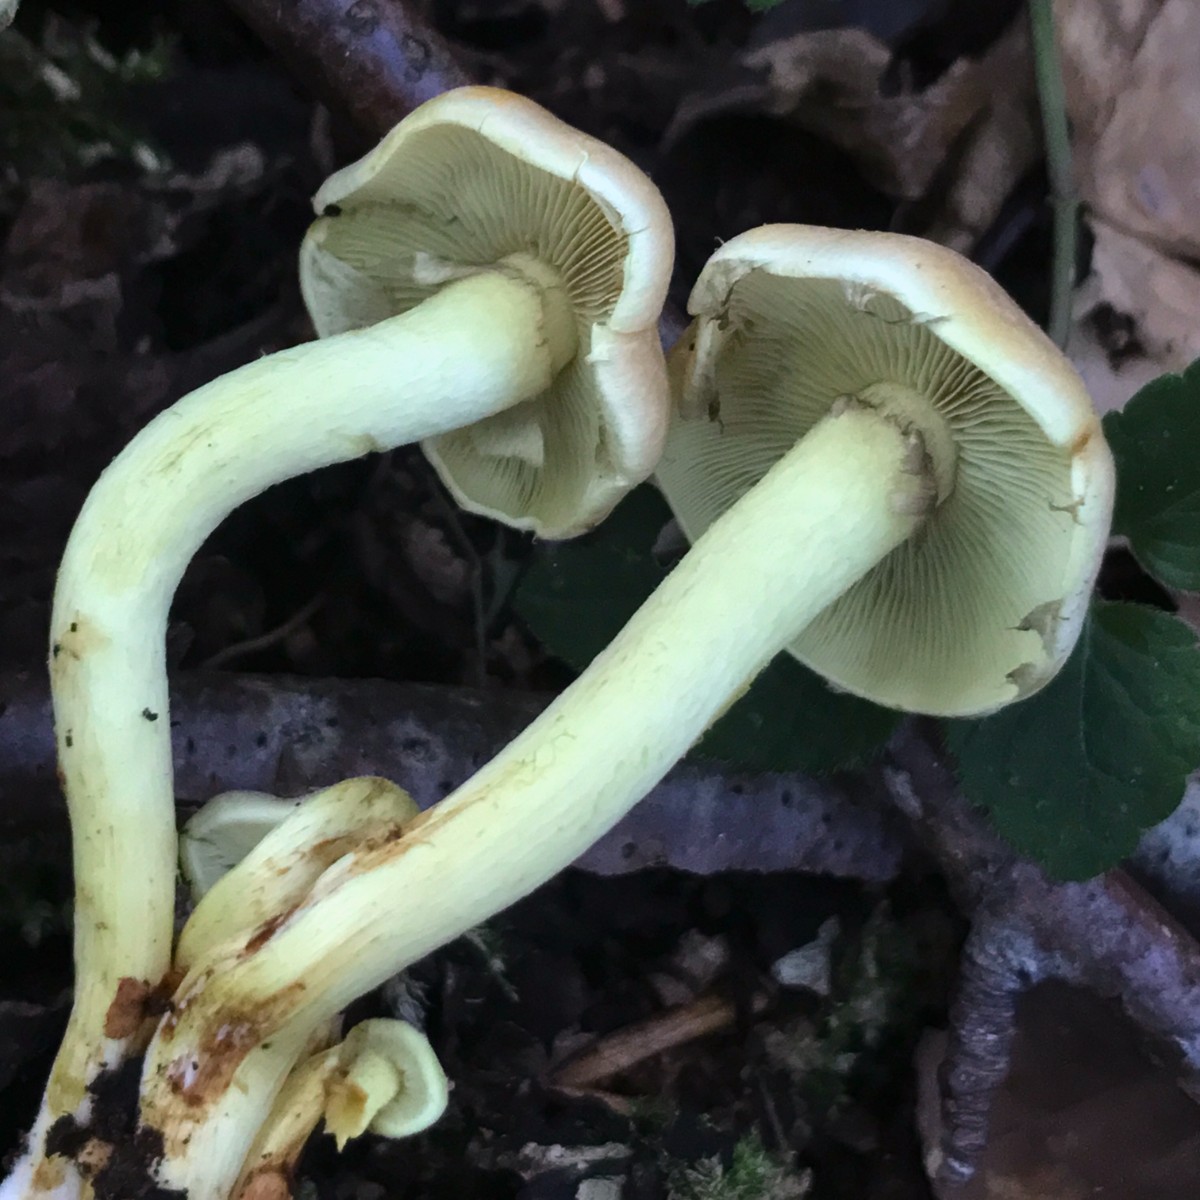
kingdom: Fungi
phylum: Basidiomycota
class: Agaricomycetes
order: Agaricales
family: Strophariaceae
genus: Hypholoma
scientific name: Hypholoma fasciculare
